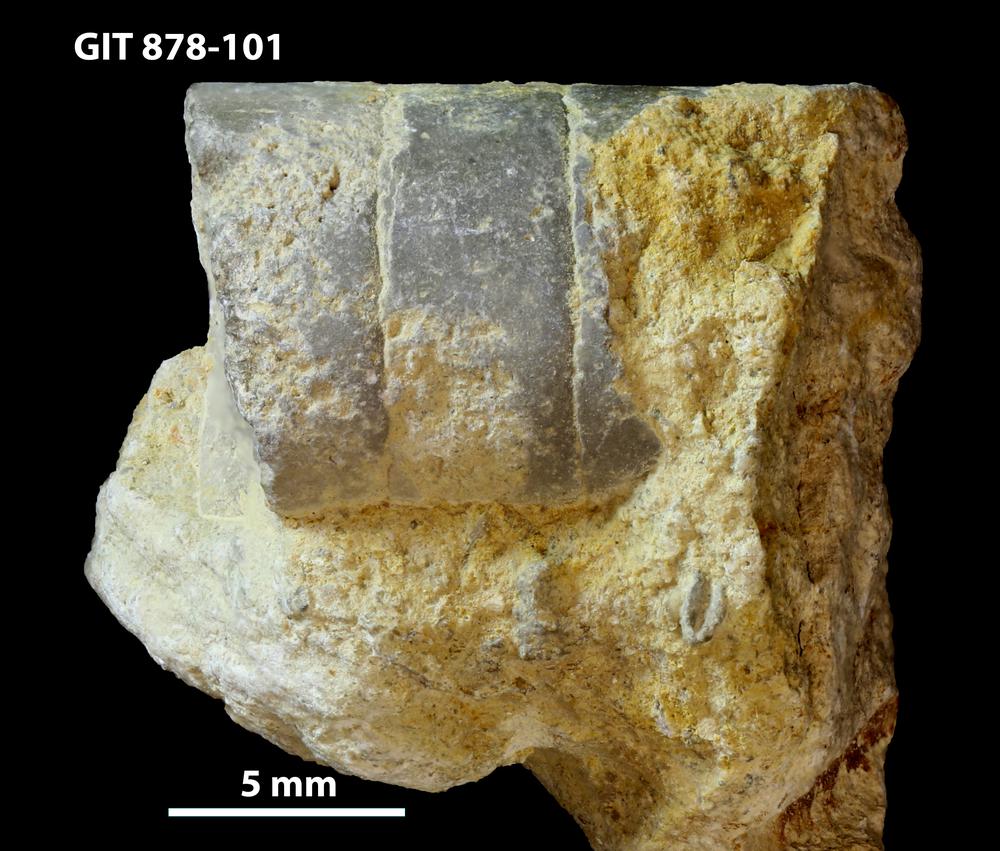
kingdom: Animalia
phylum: Mollusca
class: Cephalopoda
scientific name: Cephalopoda
